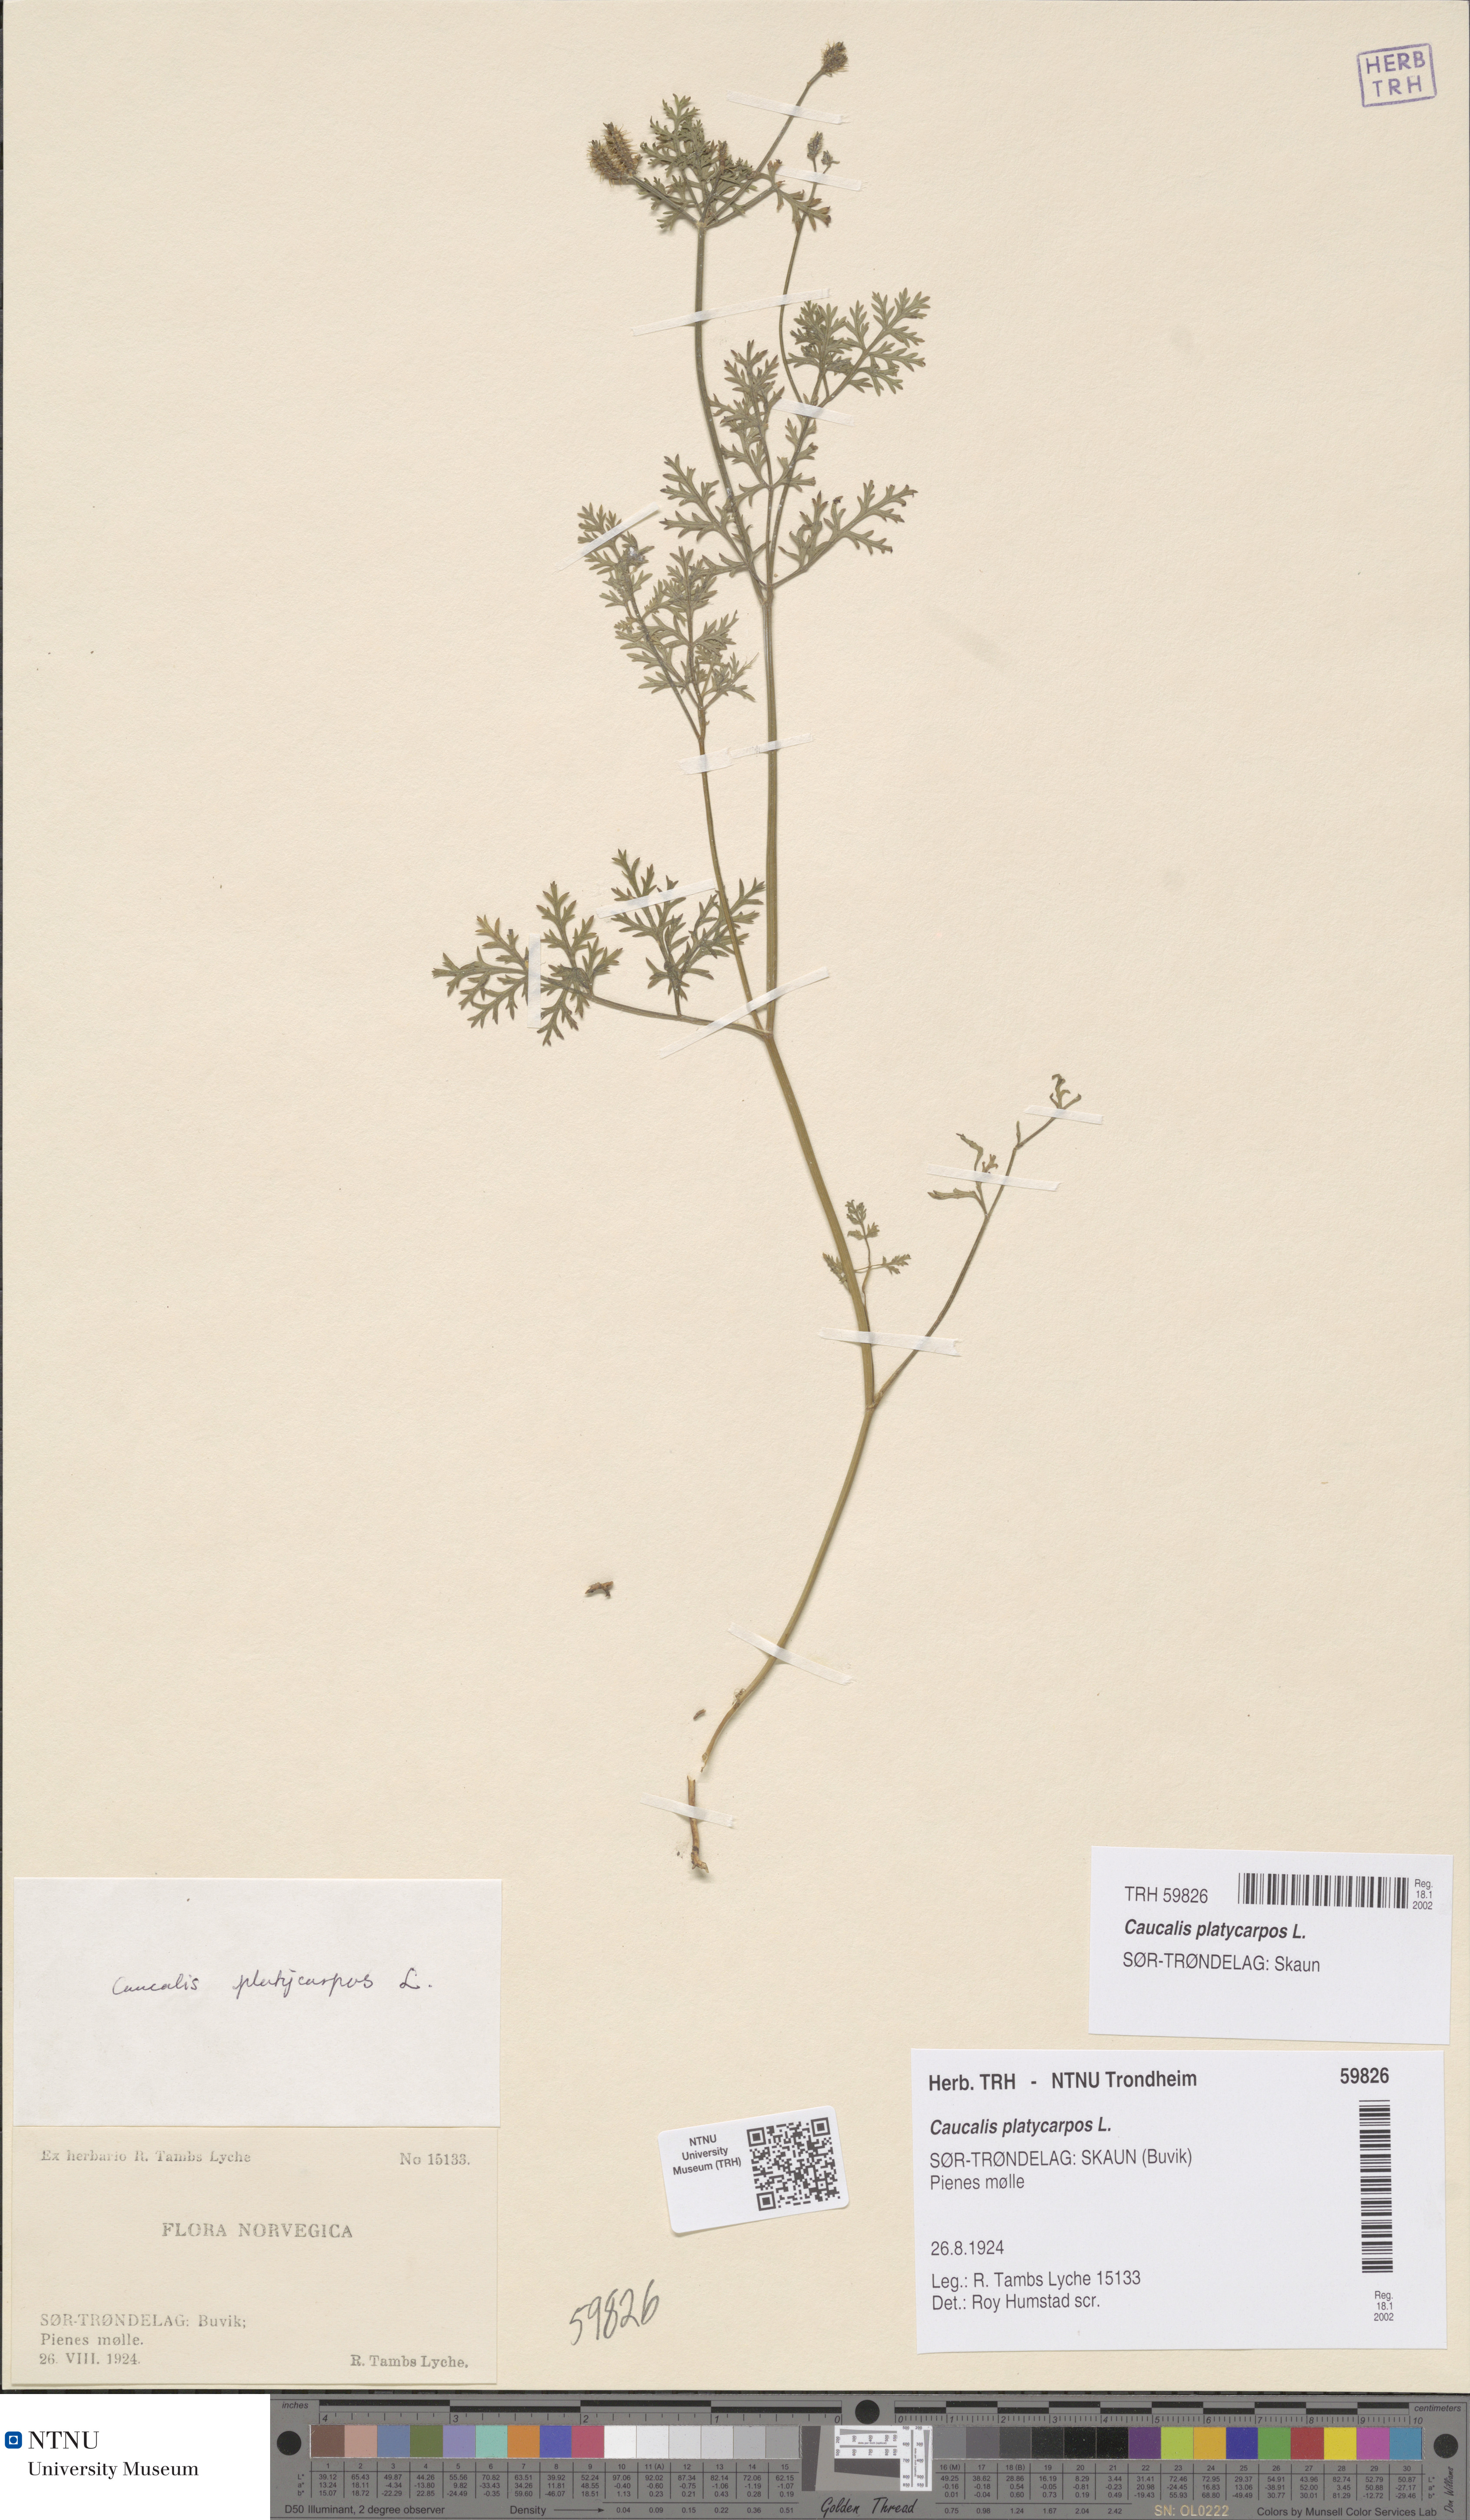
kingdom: Plantae
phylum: Tracheophyta
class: Magnoliopsida
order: Apiales
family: Apiaceae
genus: Caucalis
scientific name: Caucalis platycarpos
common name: Small bur-parsley
